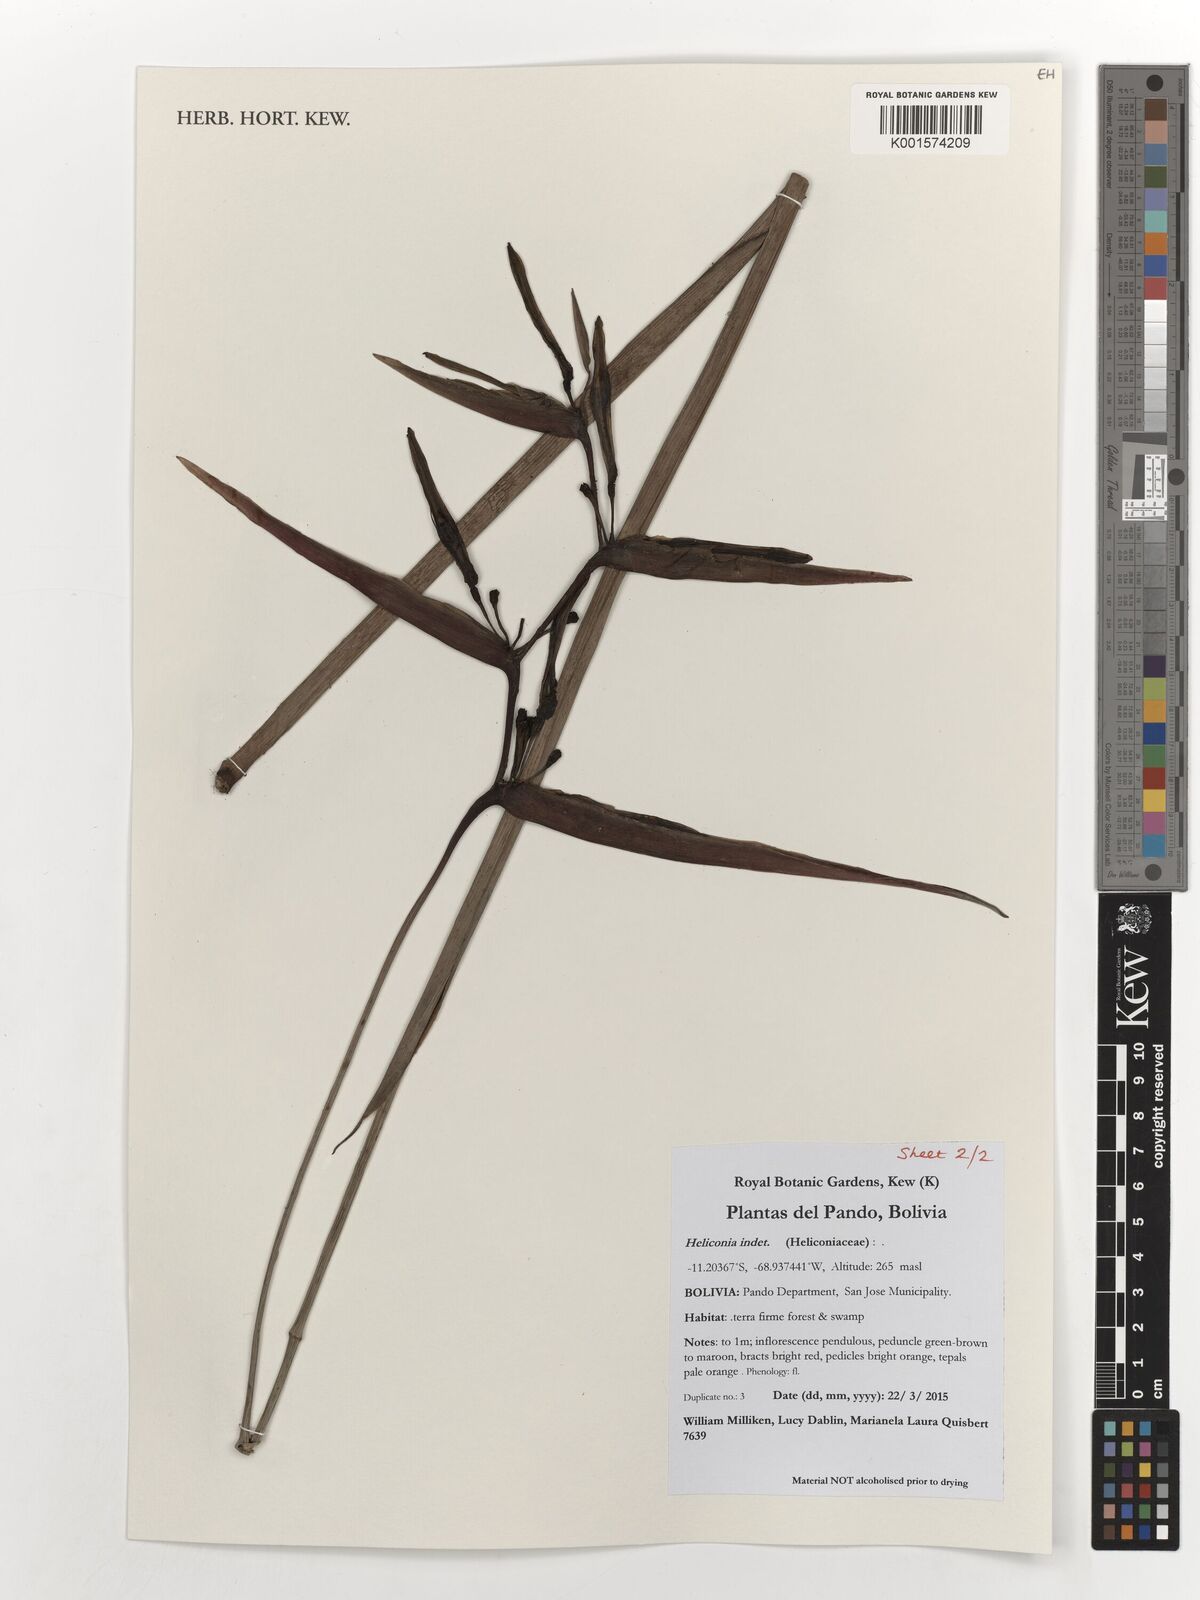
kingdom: Plantae
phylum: Tracheophyta
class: Liliopsida
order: Zingiberales
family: Heliconiaceae
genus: Heliconia
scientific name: Heliconia
